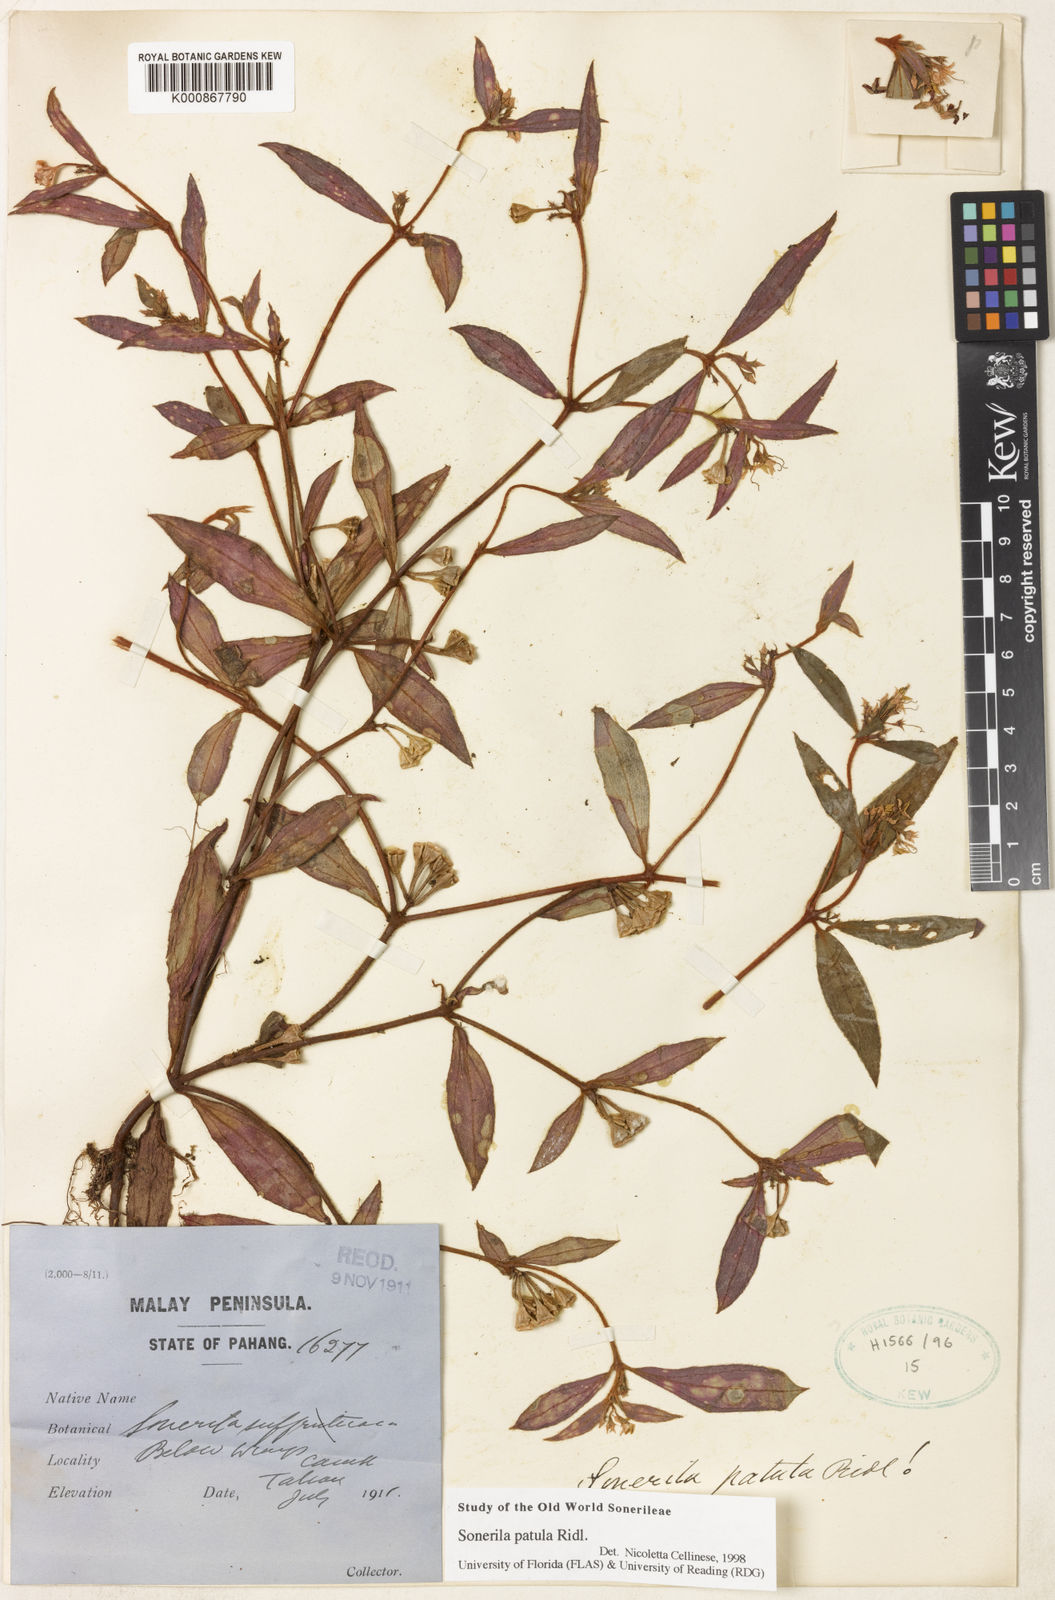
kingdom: Plantae
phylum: Tracheophyta
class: Magnoliopsida
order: Myrtales
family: Melastomataceae
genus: Sonerila
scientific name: Sonerila patula
